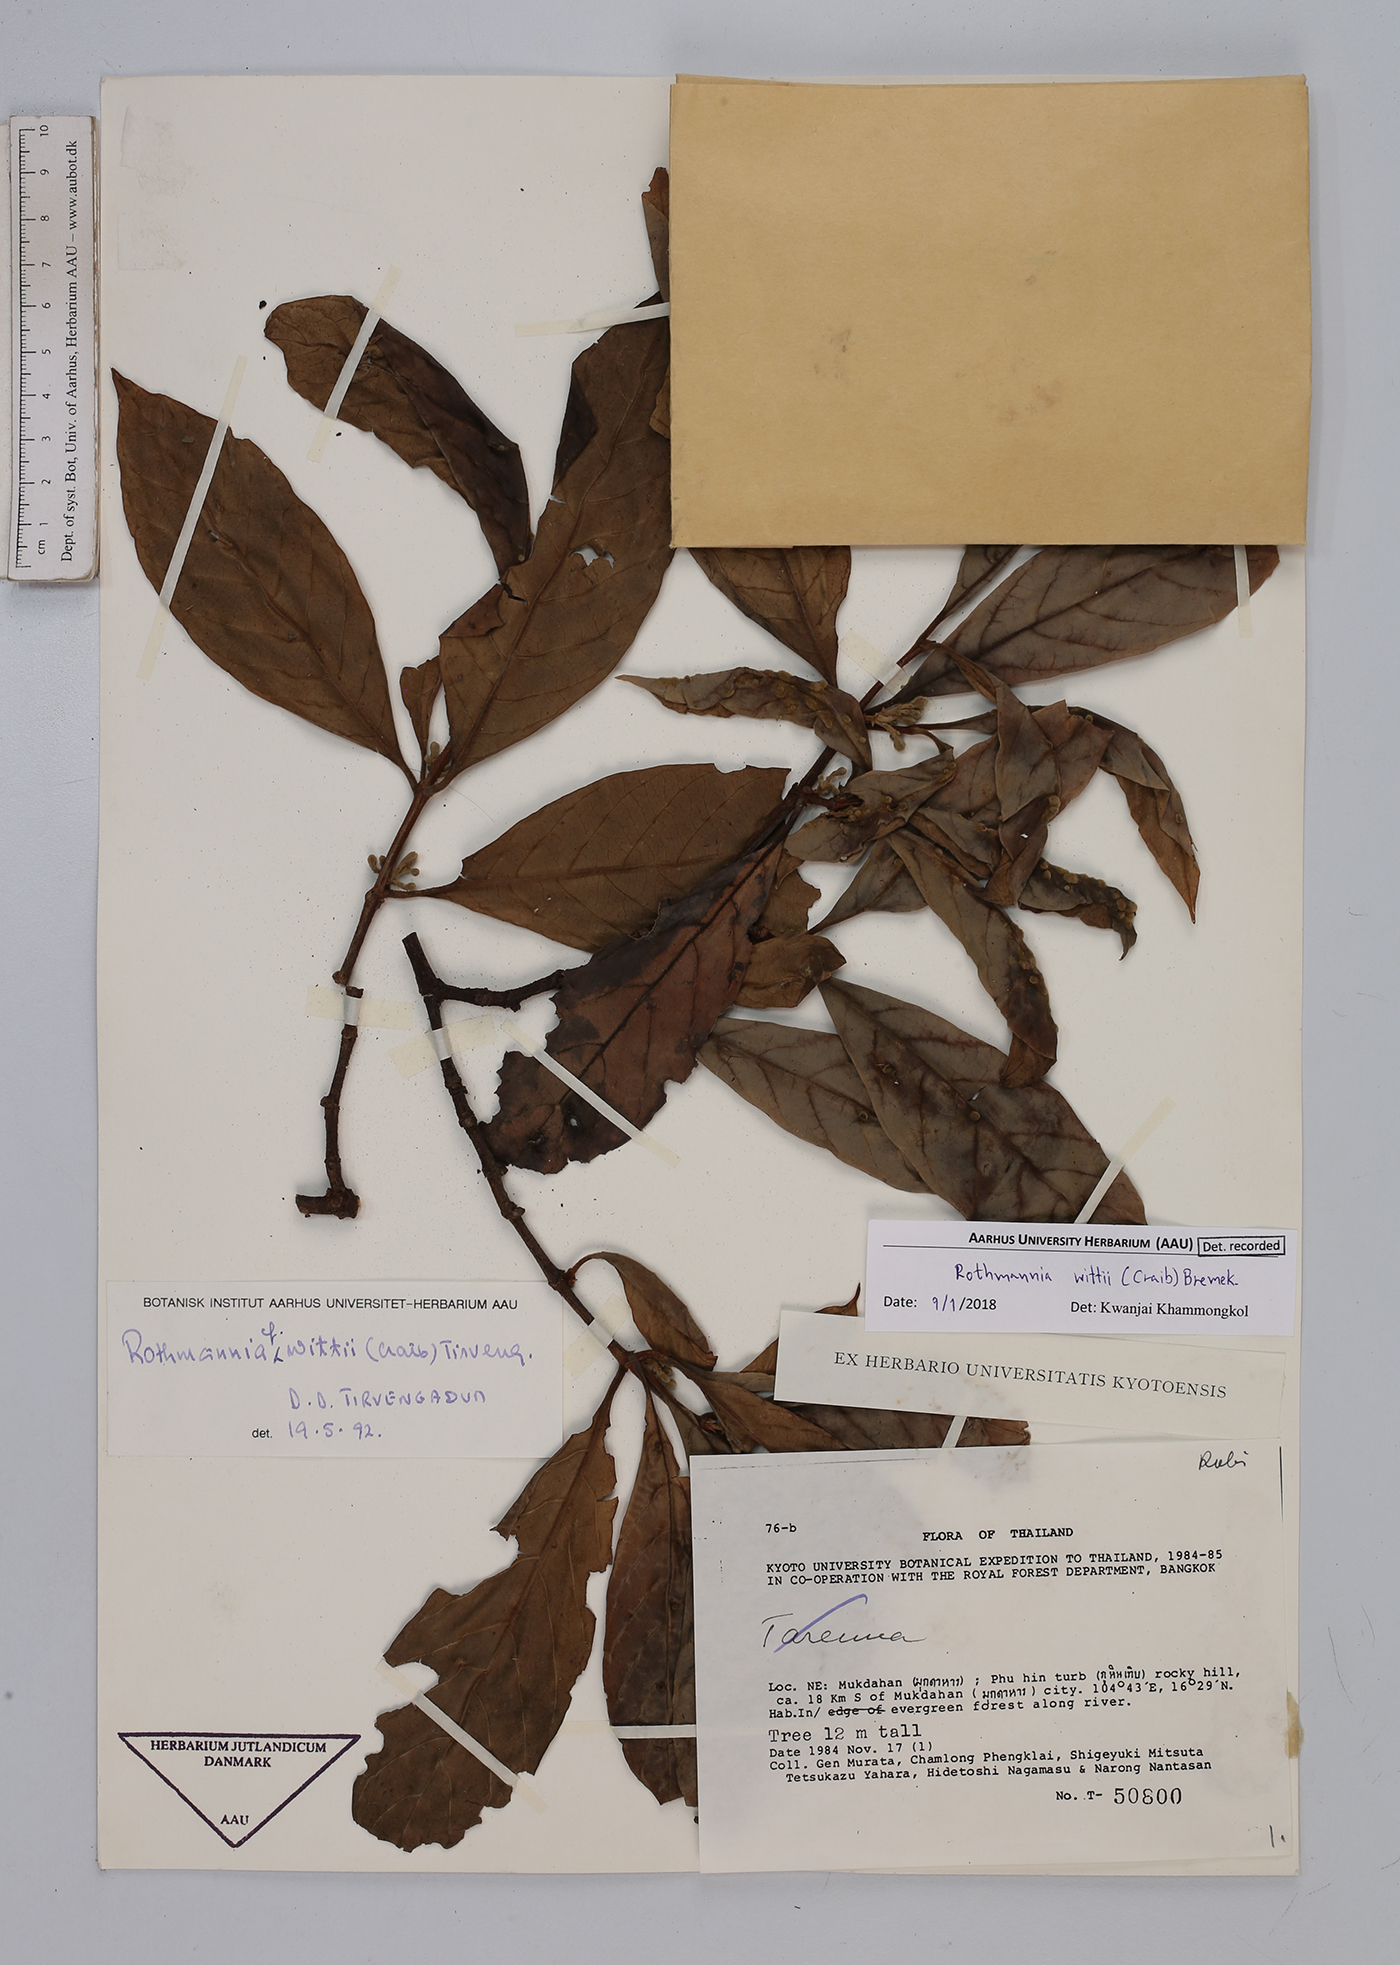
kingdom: Plantae
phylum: Tracheophyta
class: Magnoliopsida
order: Gentianales
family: Rubiaceae
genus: Ridsdalea
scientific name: Ridsdalea wittii
